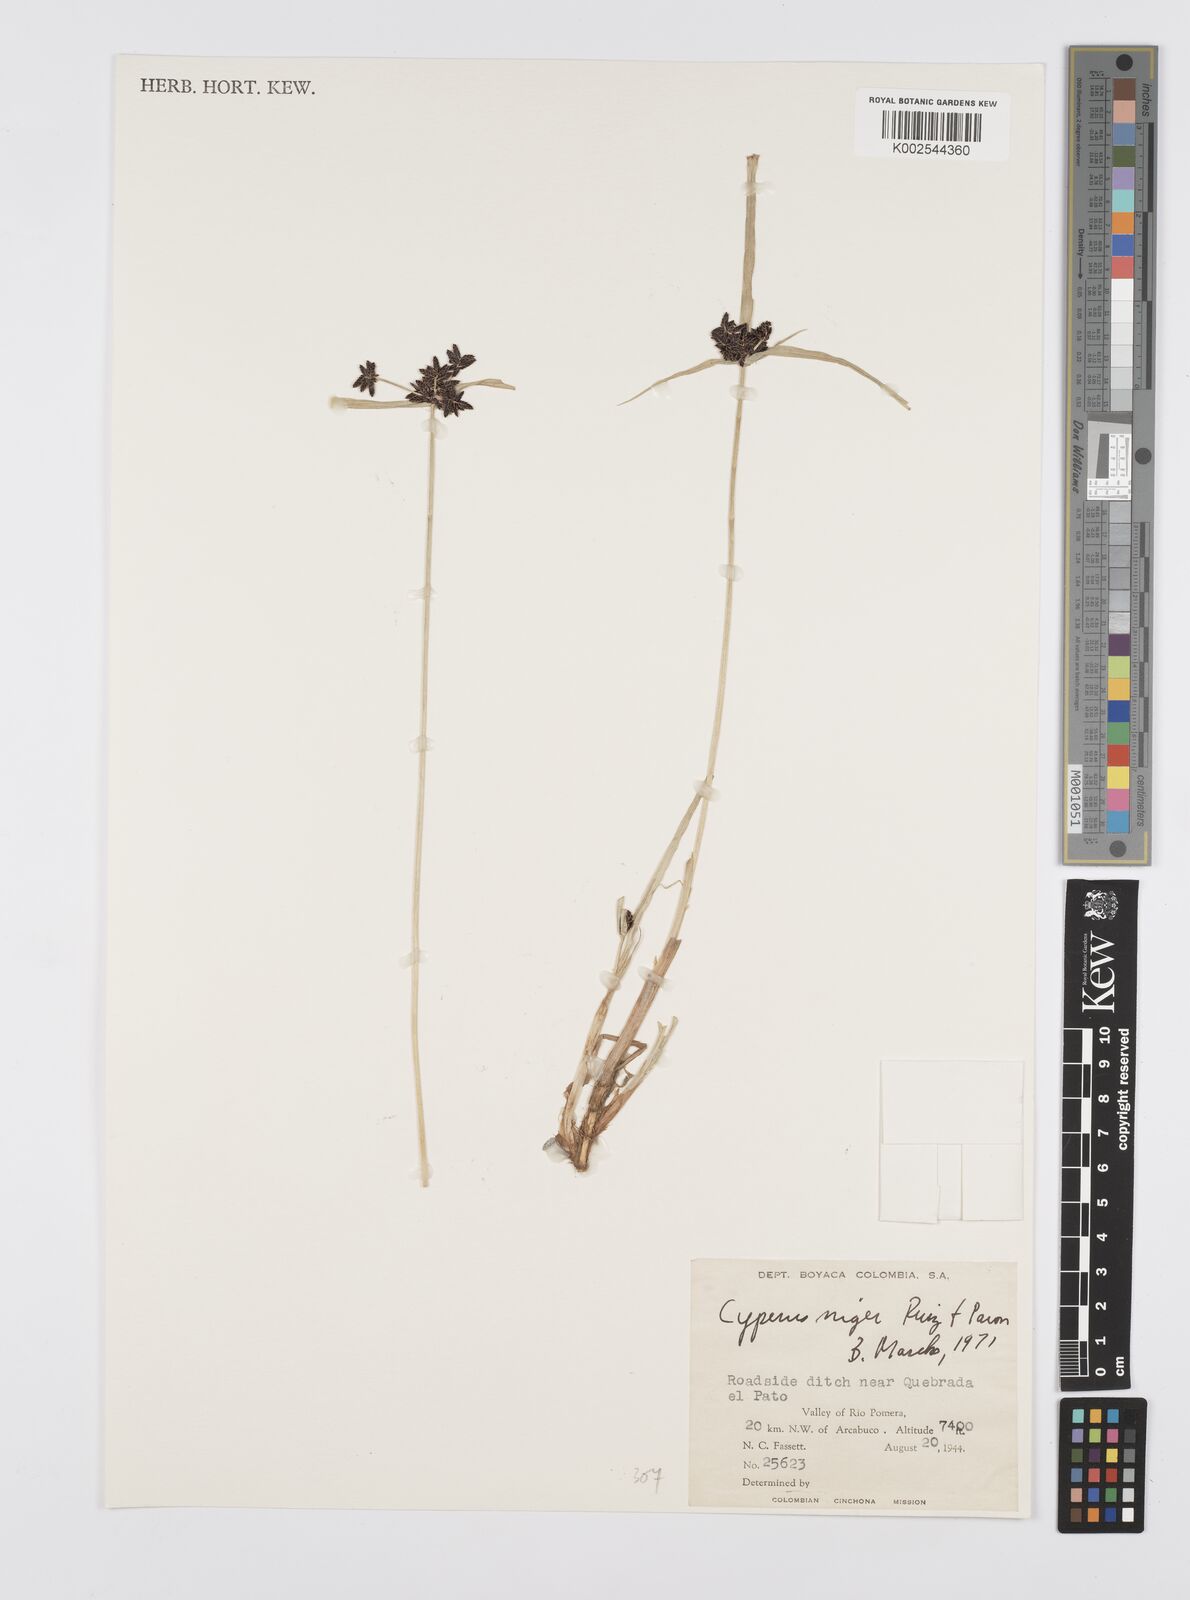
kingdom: Plantae
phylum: Tracheophyta
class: Liliopsida
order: Poales
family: Cyperaceae
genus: Cyperus
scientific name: Cyperus melanostachyus
